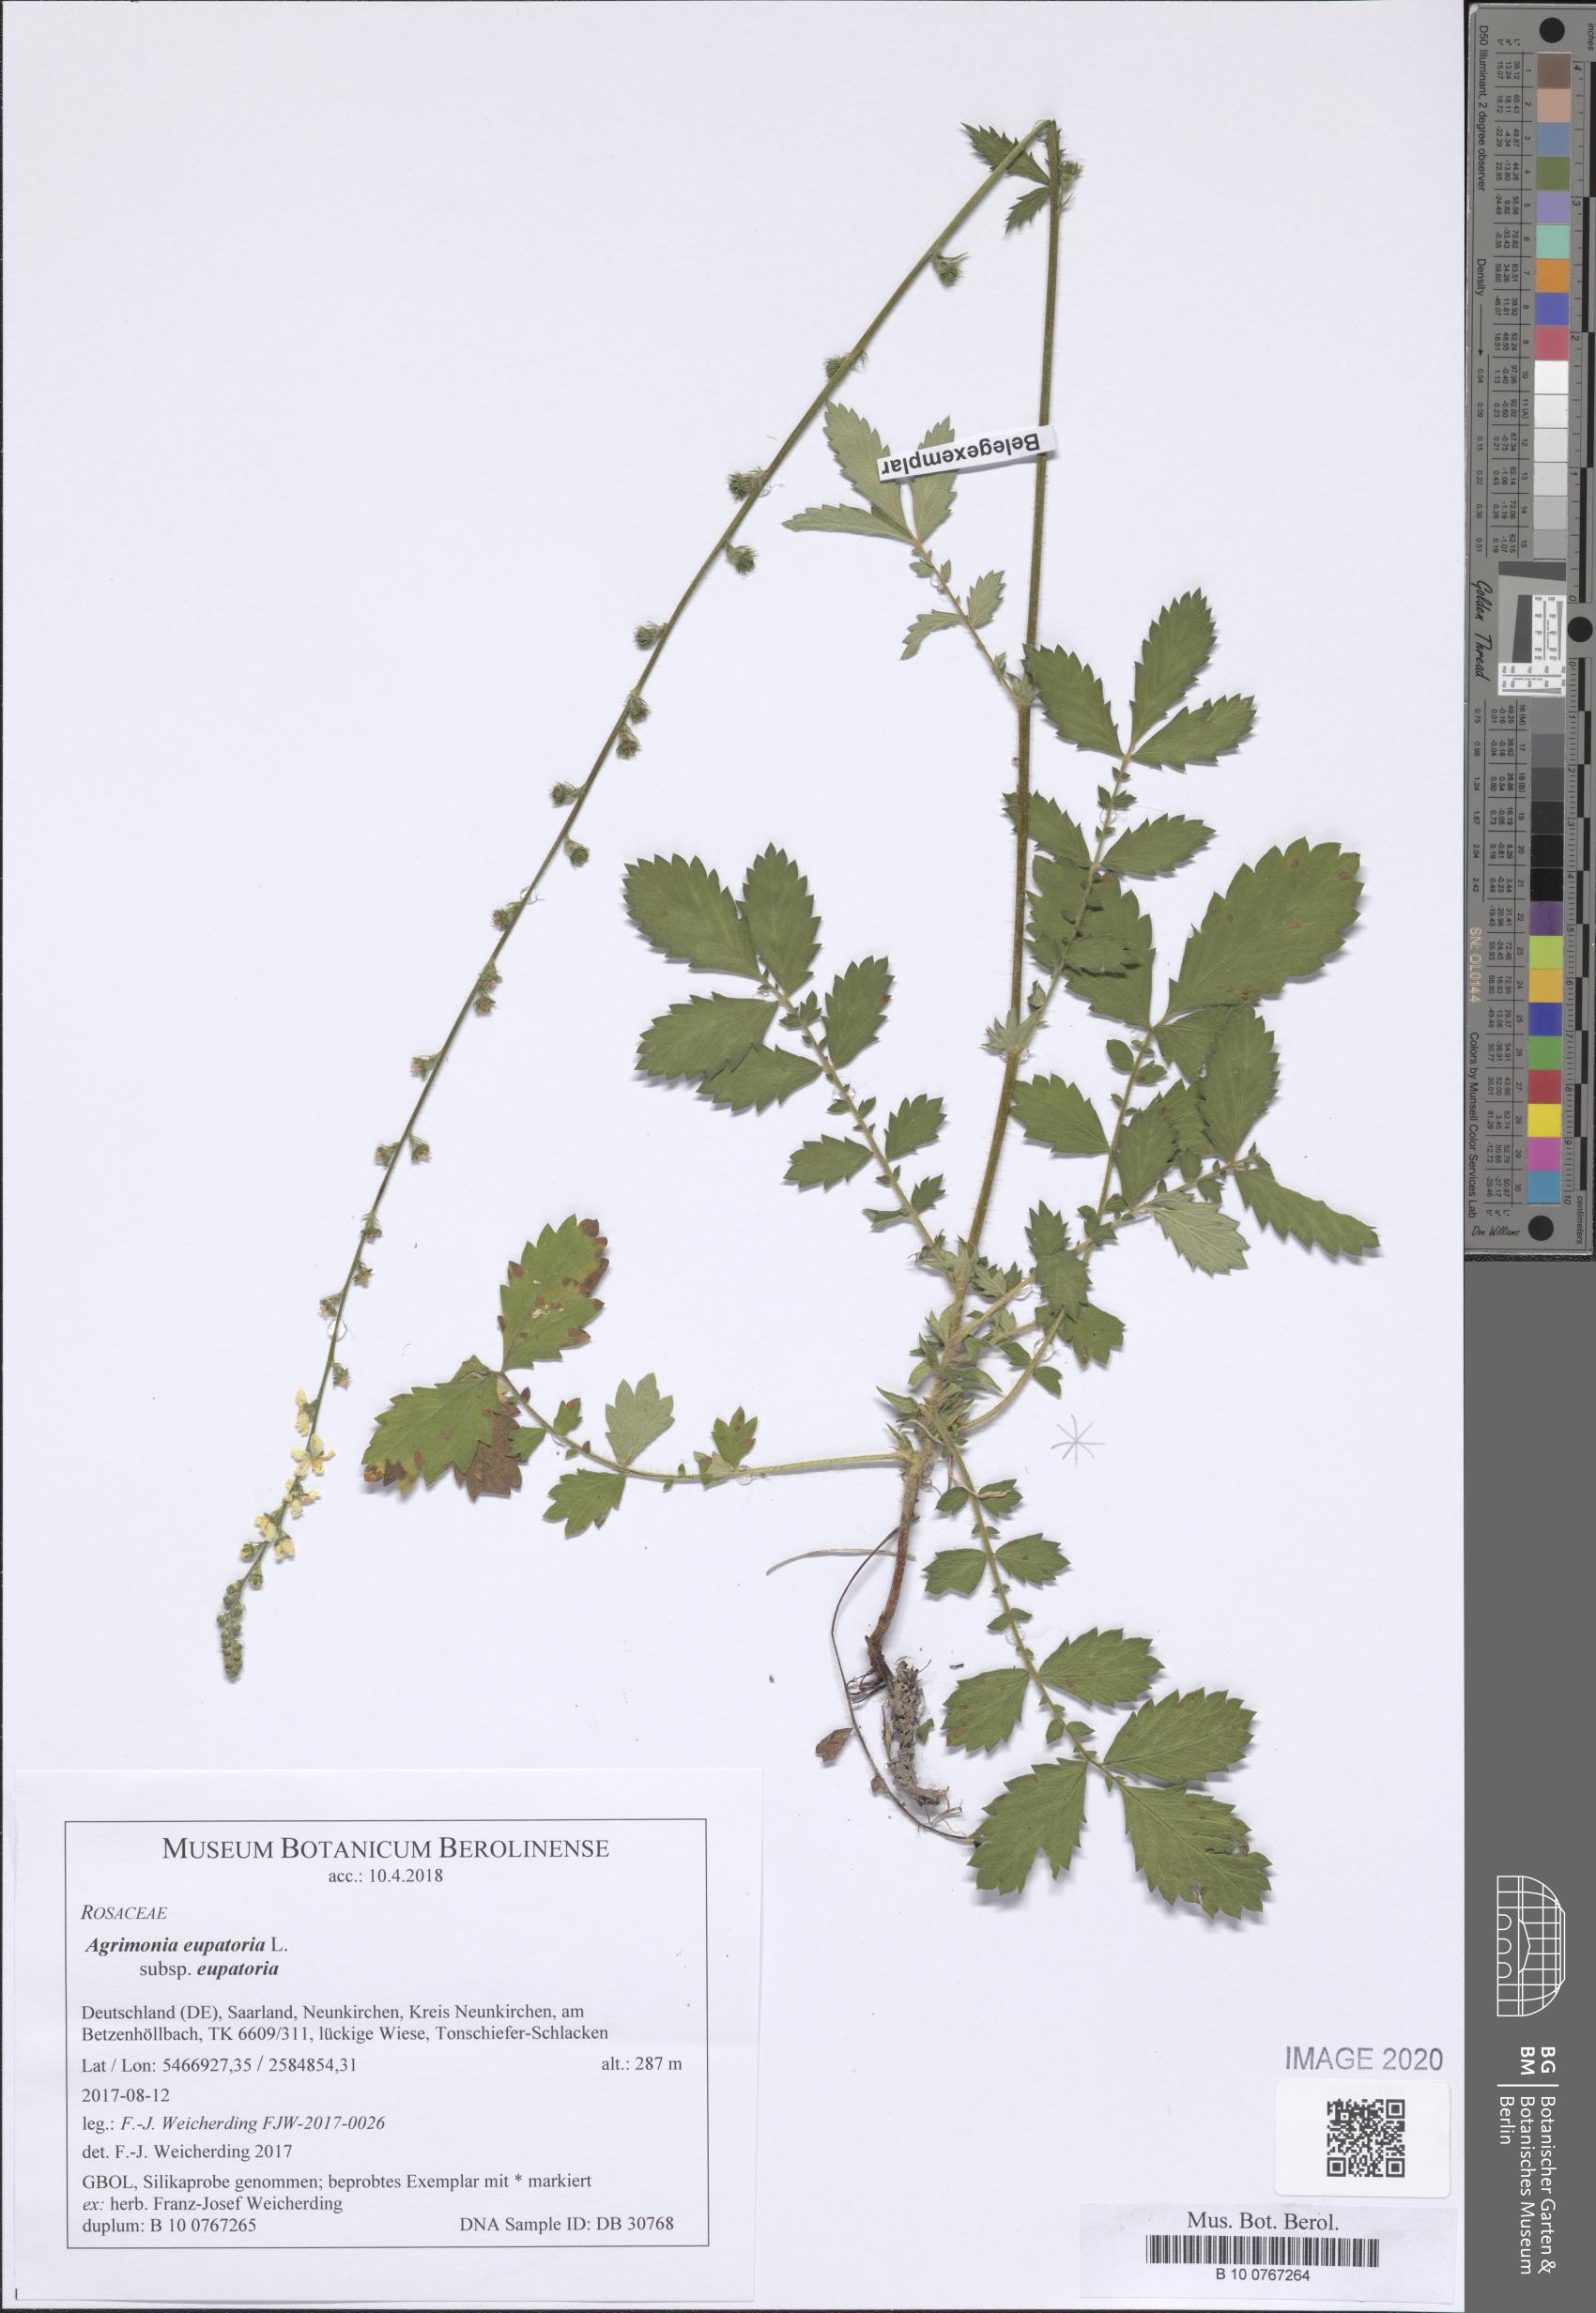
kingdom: Plantae
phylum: Tracheophyta
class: Magnoliopsida
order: Rosales
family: Rosaceae
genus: Agrimonia
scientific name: Agrimonia eupatoria
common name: Agrimony
